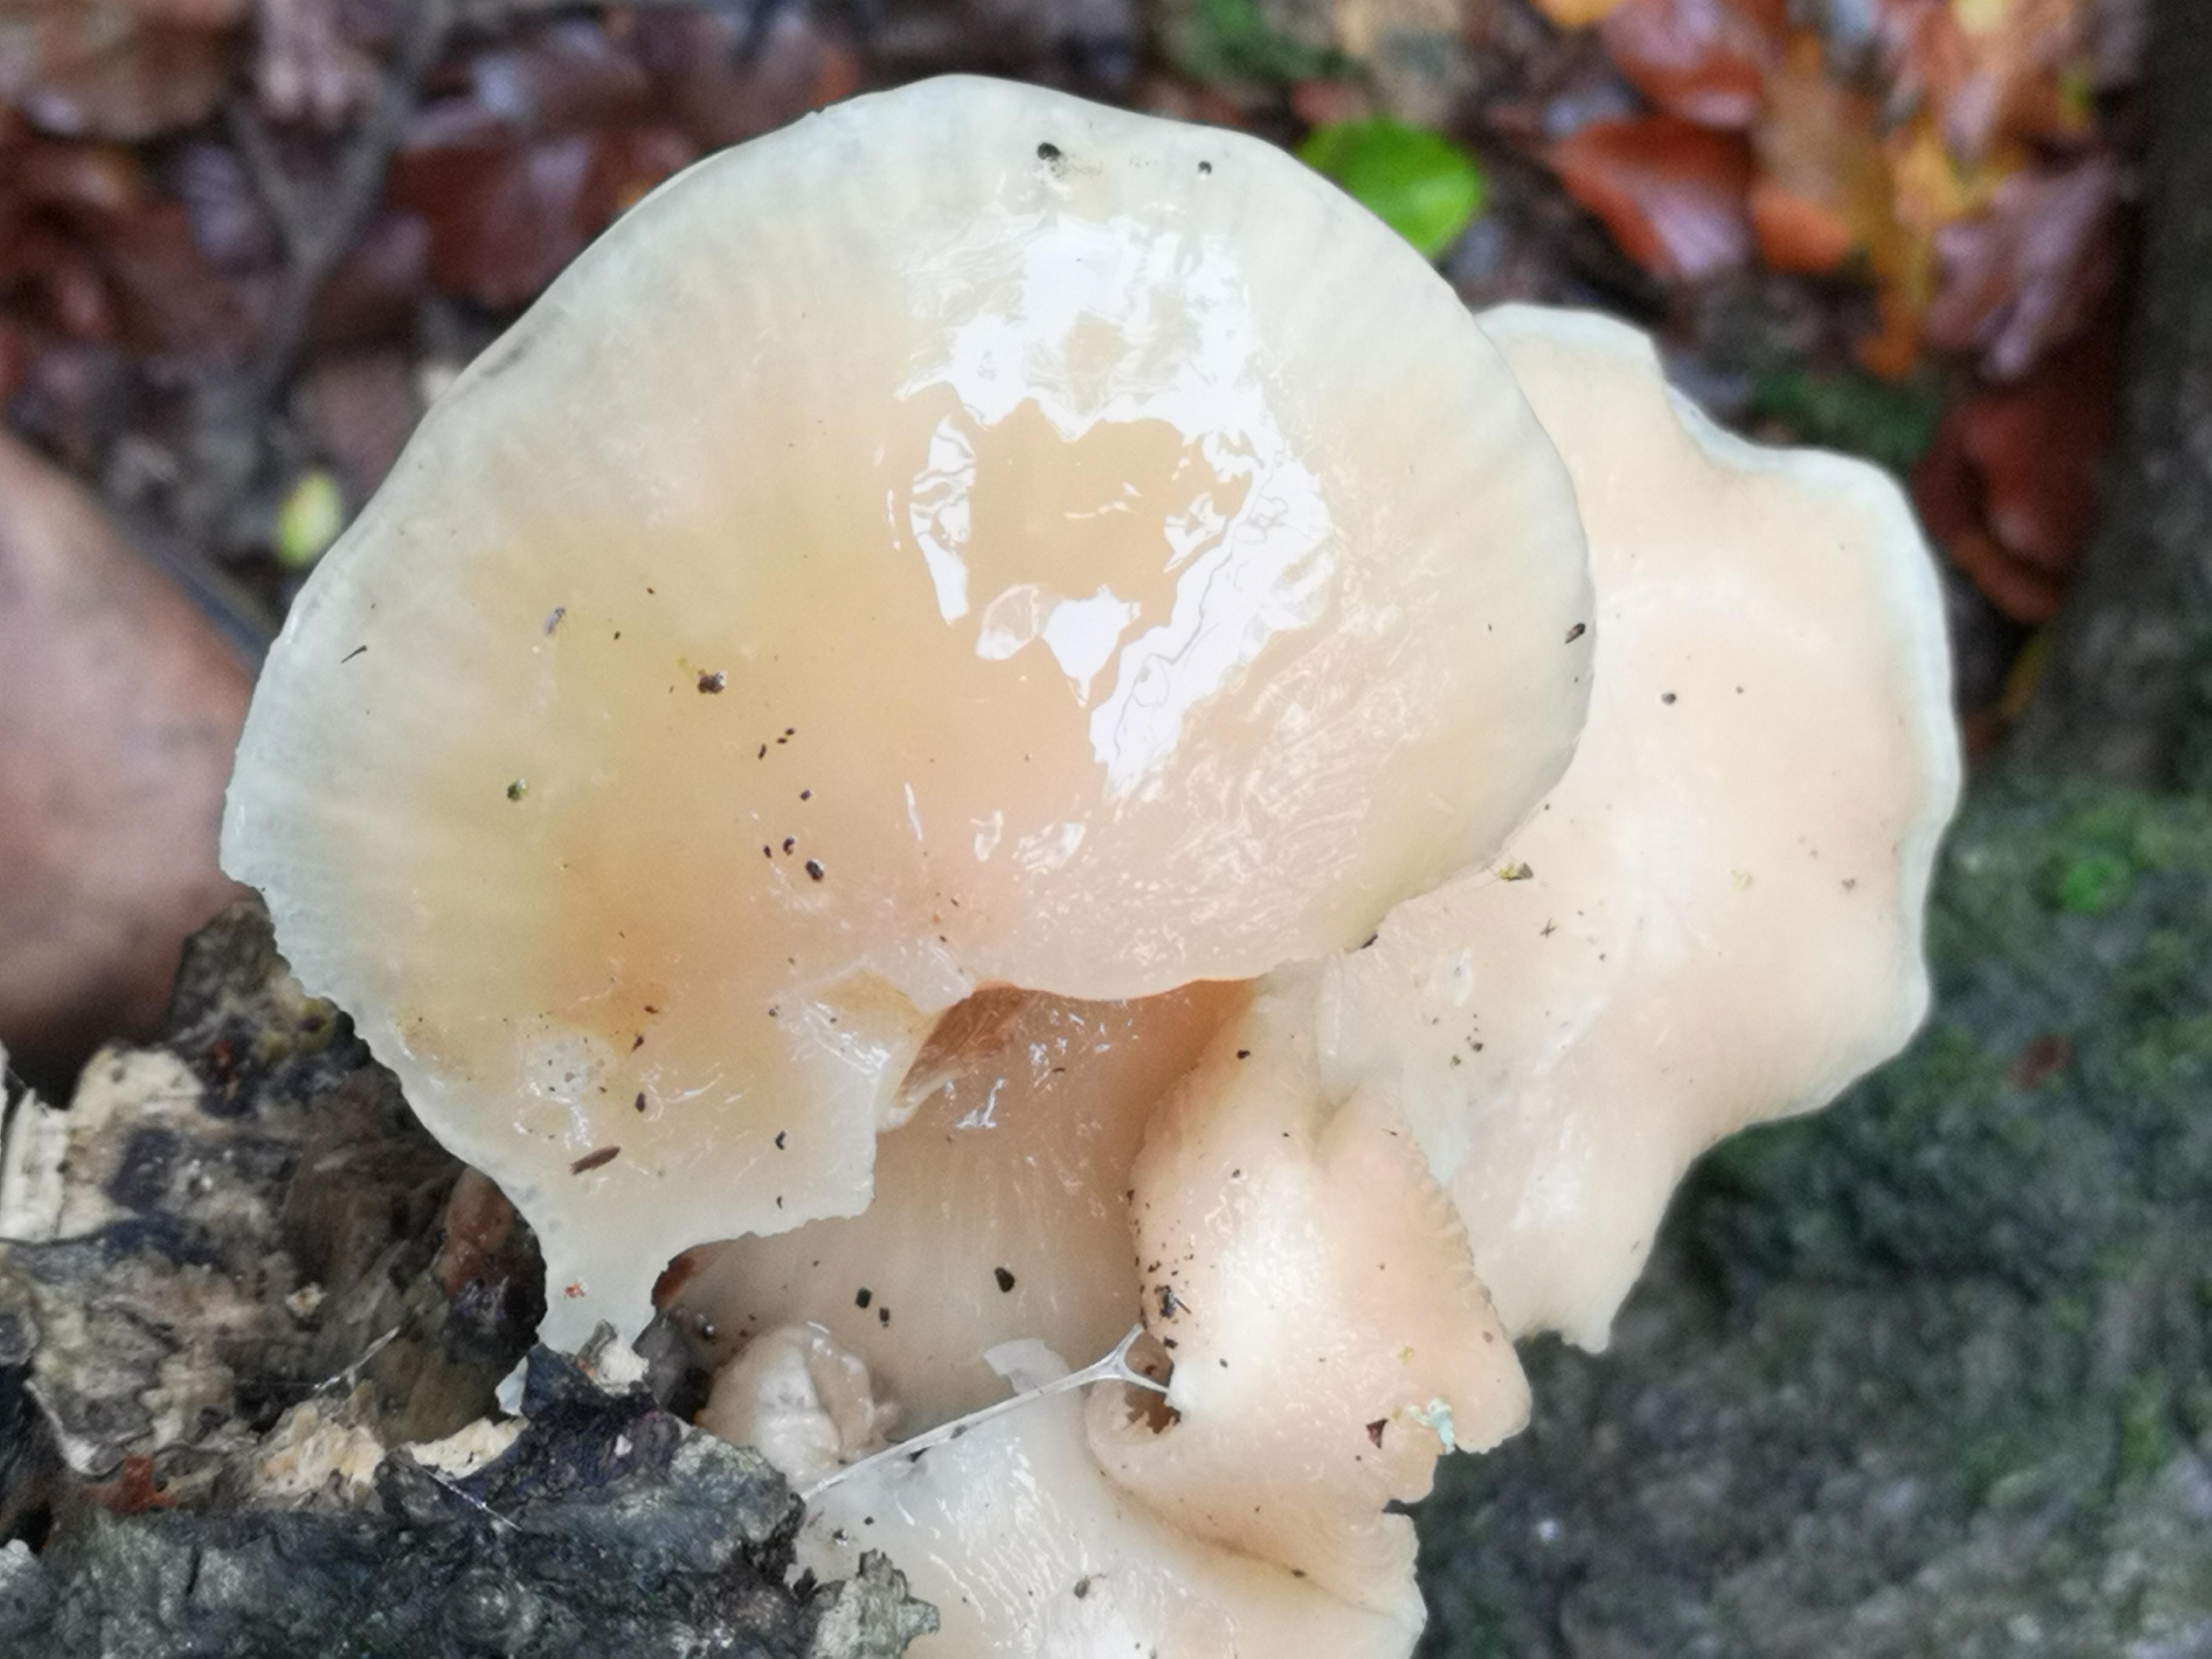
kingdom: Fungi
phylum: Basidiomycota
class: Agaricomycetes
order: Agaricales
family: Physalacriaceae
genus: Mucidula
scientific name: Mucidula mucida
